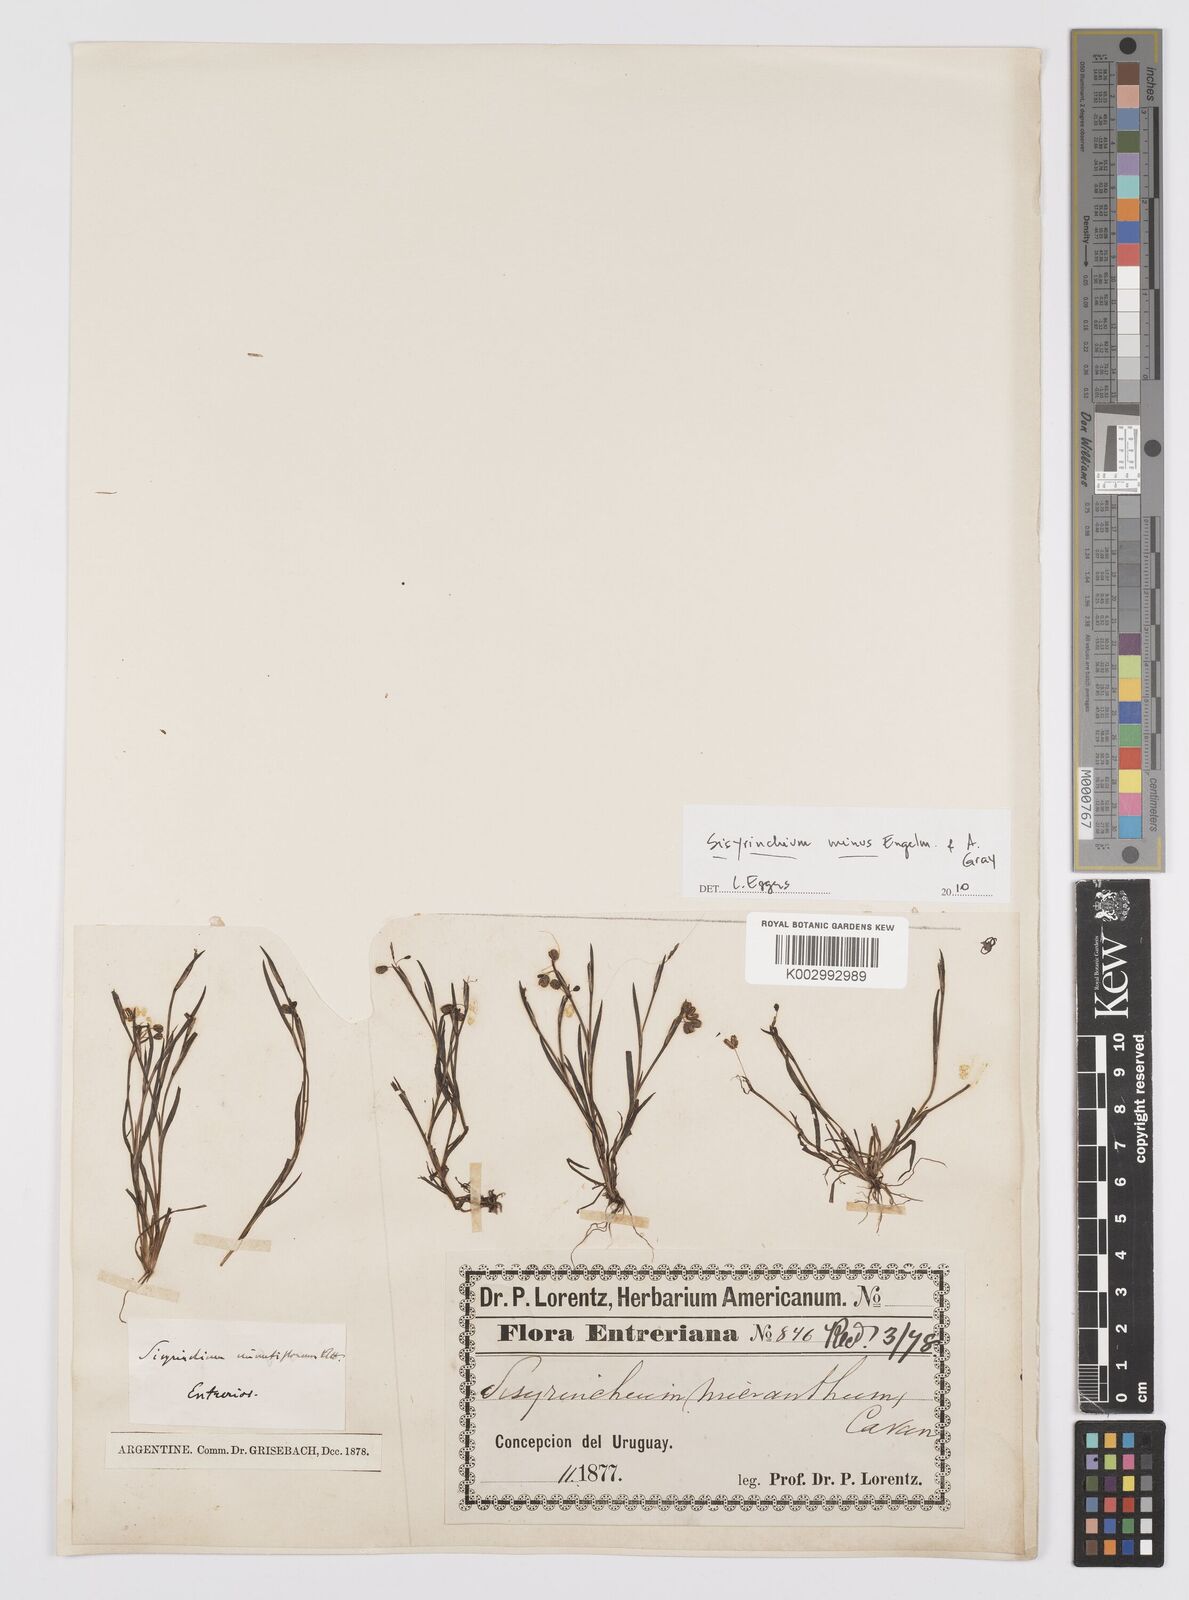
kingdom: Plantae
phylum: Tracheophyta
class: Liliopsida
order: Asparagales
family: Iridaceae
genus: Sisyrinchium
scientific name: Sisyrinchium minus
